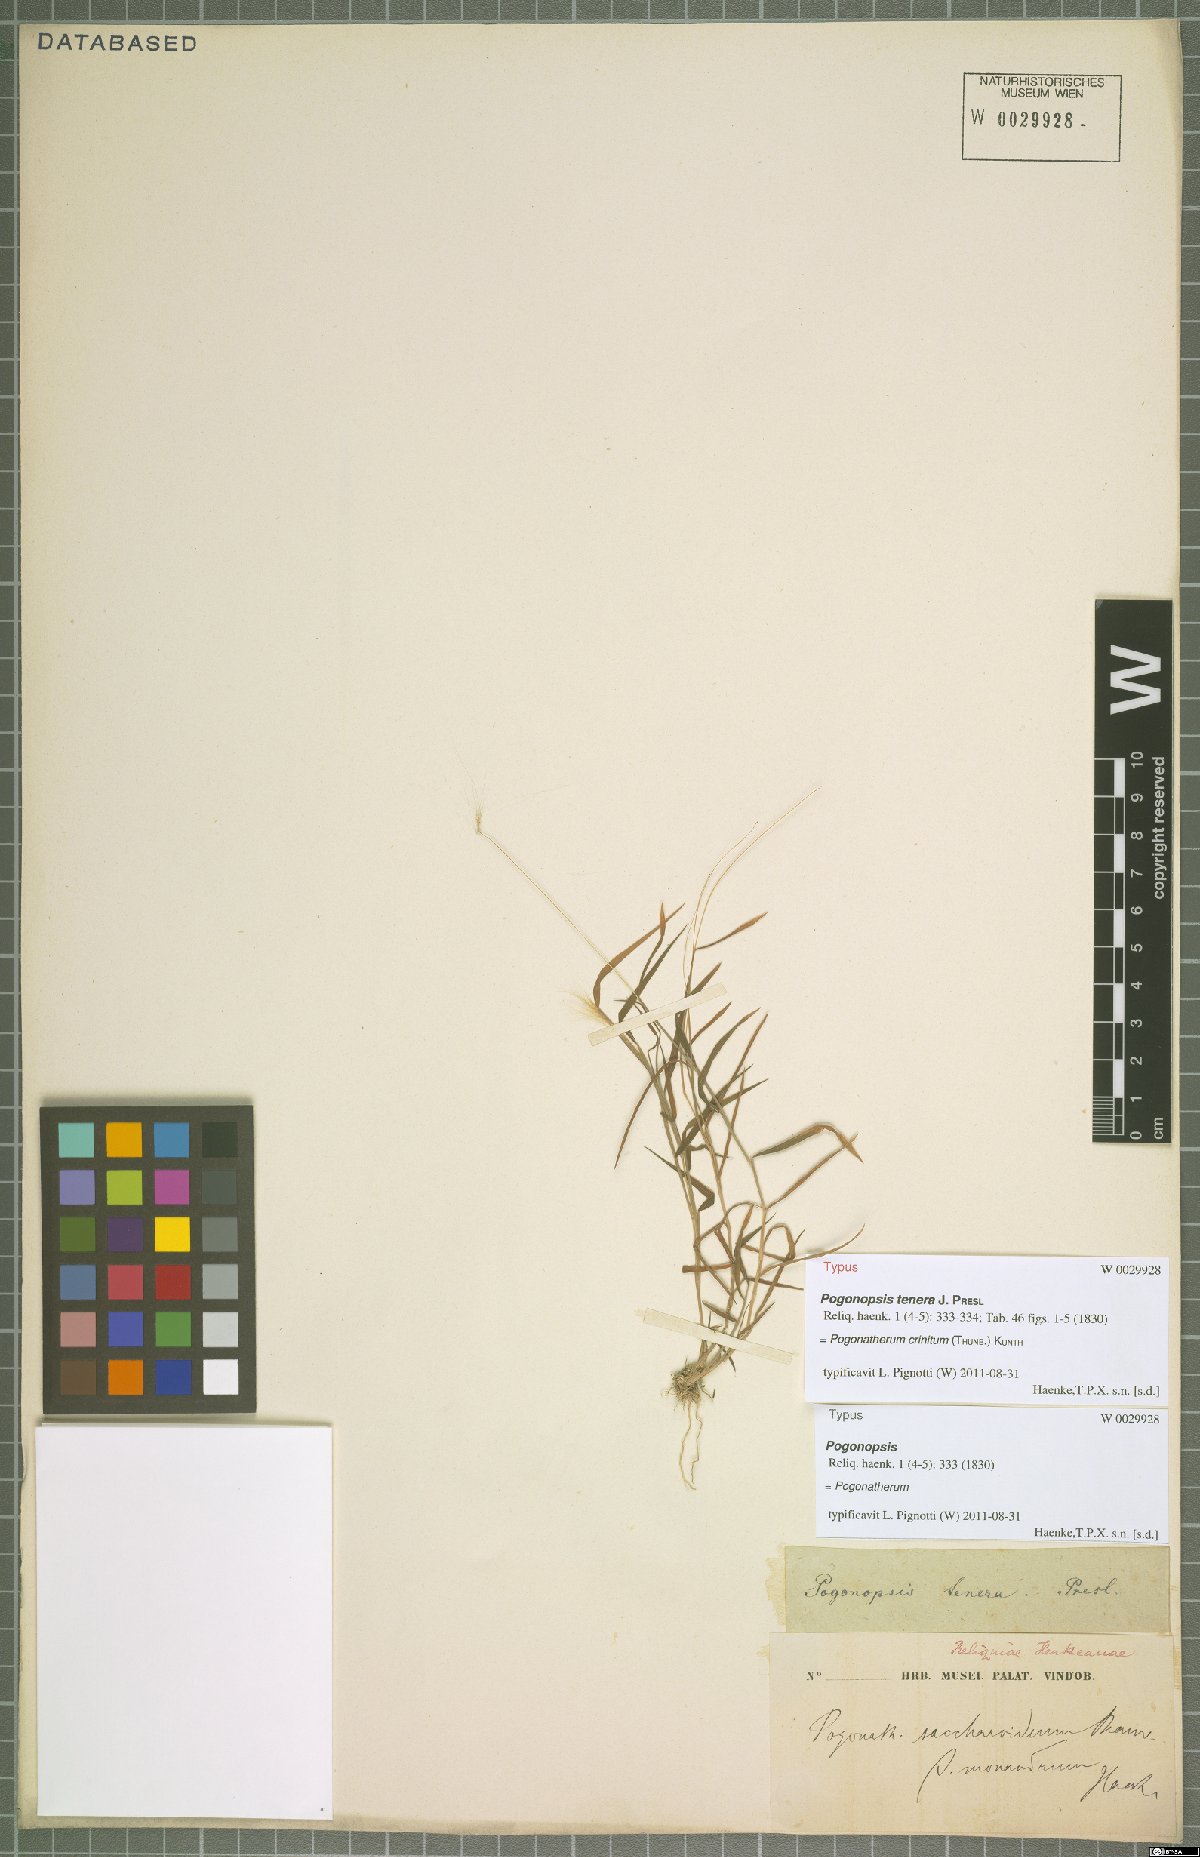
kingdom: Plantae
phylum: Tracheophyta
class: Liliopsida
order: Poales
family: Poaceae
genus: Pogonatherum
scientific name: Pogonatherum crinitum
